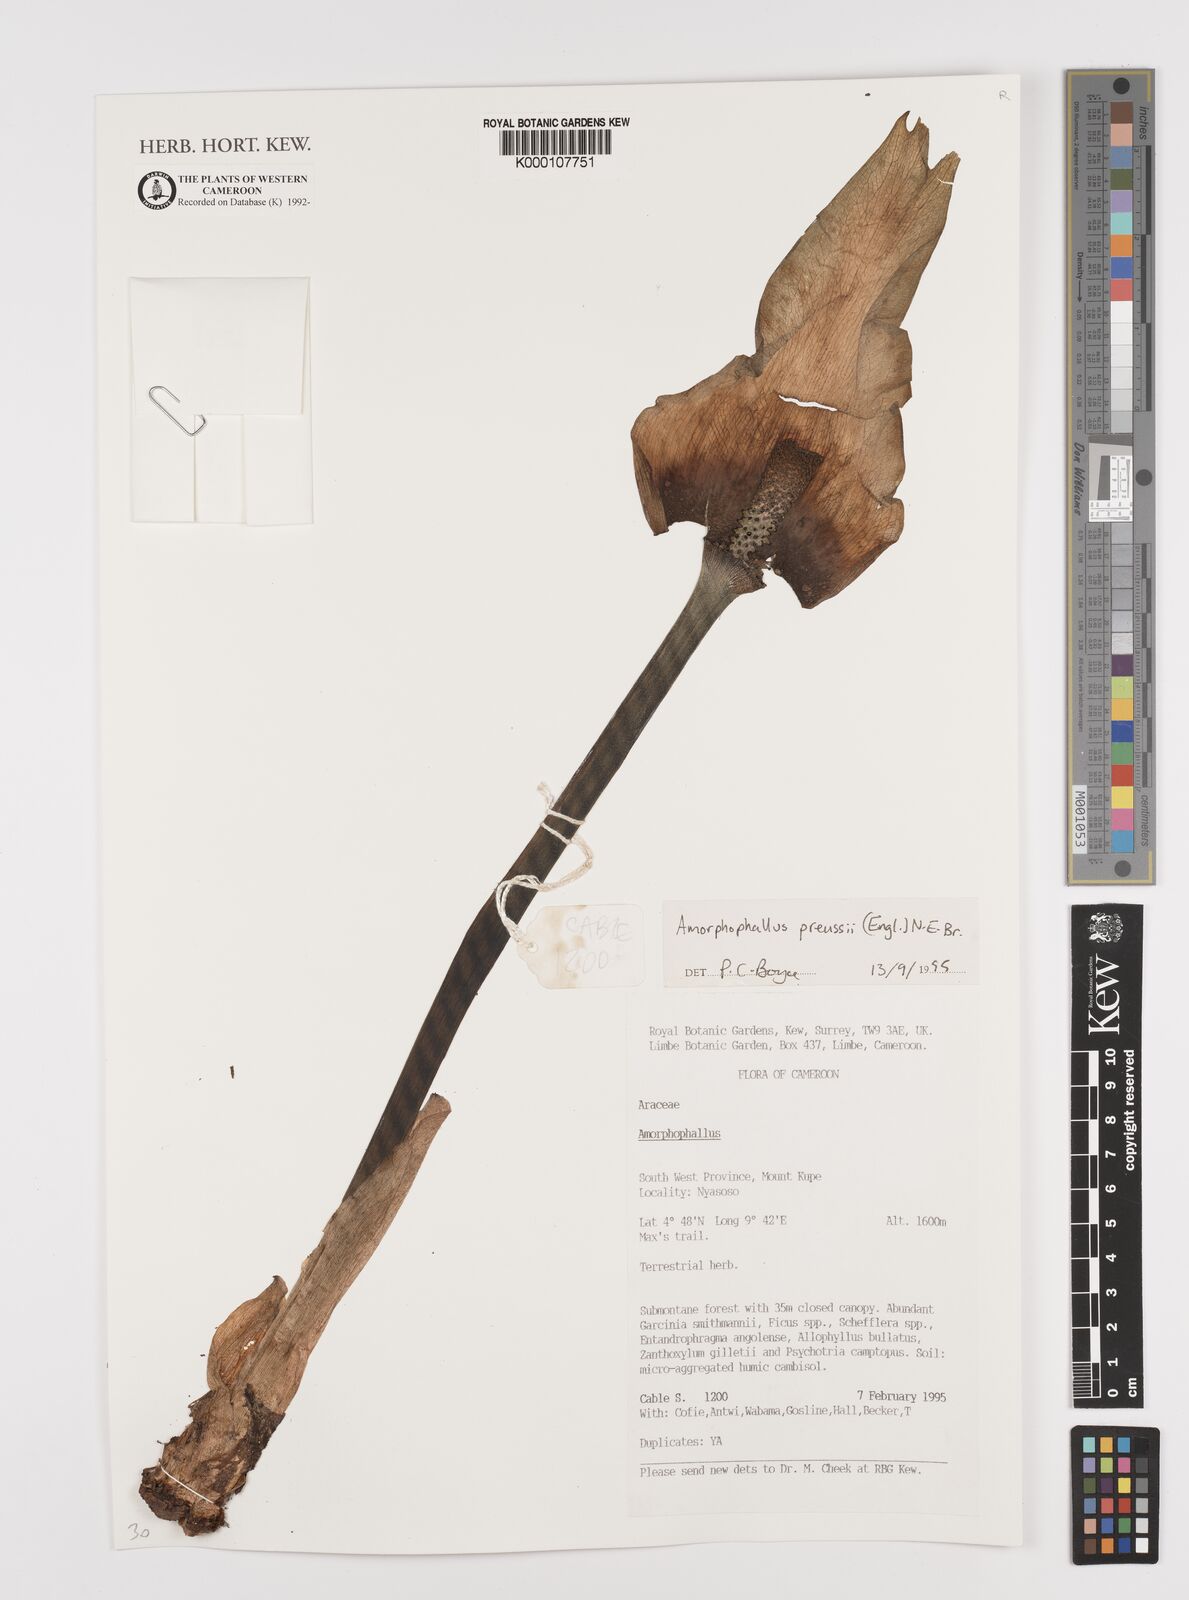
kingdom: Plantae
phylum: Tracheophyta
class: Liliopsida
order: Alismatales
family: Araceae
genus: Amorphophallus
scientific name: Amorphophallus preussii
